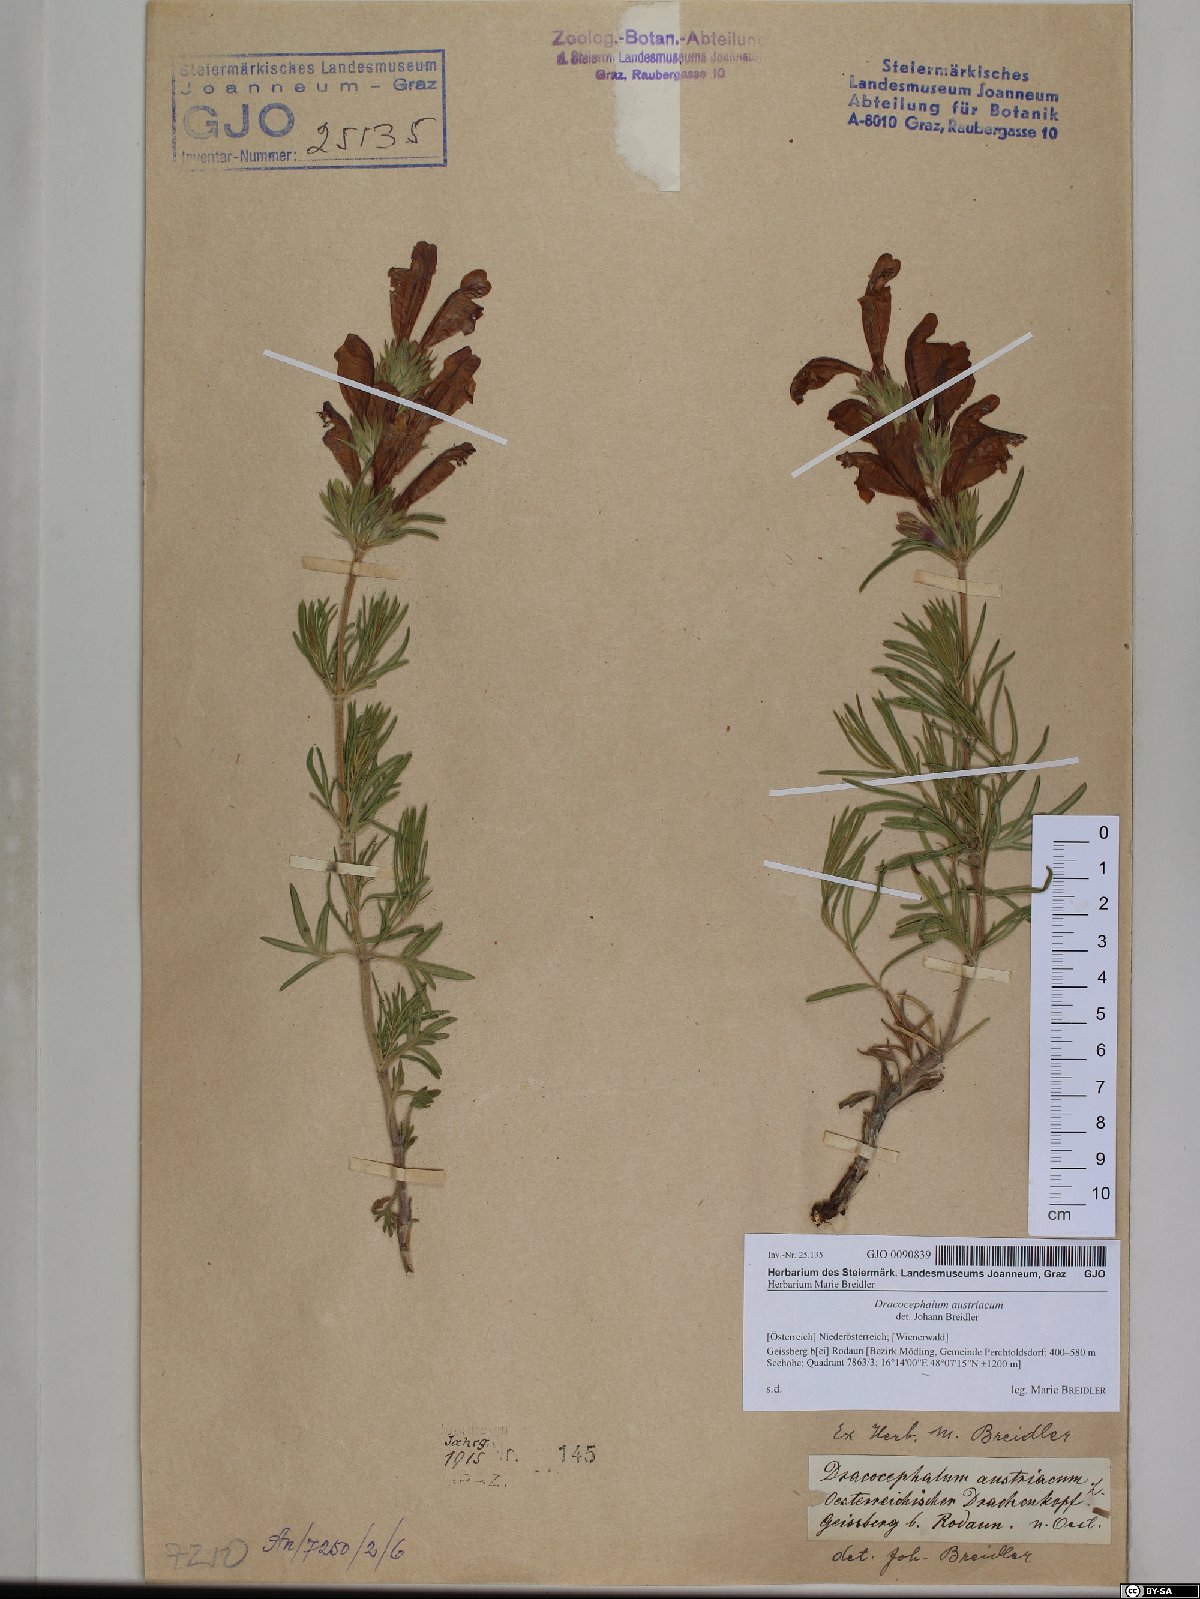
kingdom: Plantae
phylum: Tracheophyta
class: Magnoliopsida
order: Lamiales
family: Lamiaceae
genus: Dracocephalum
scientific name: Dracocephalum austriacum
